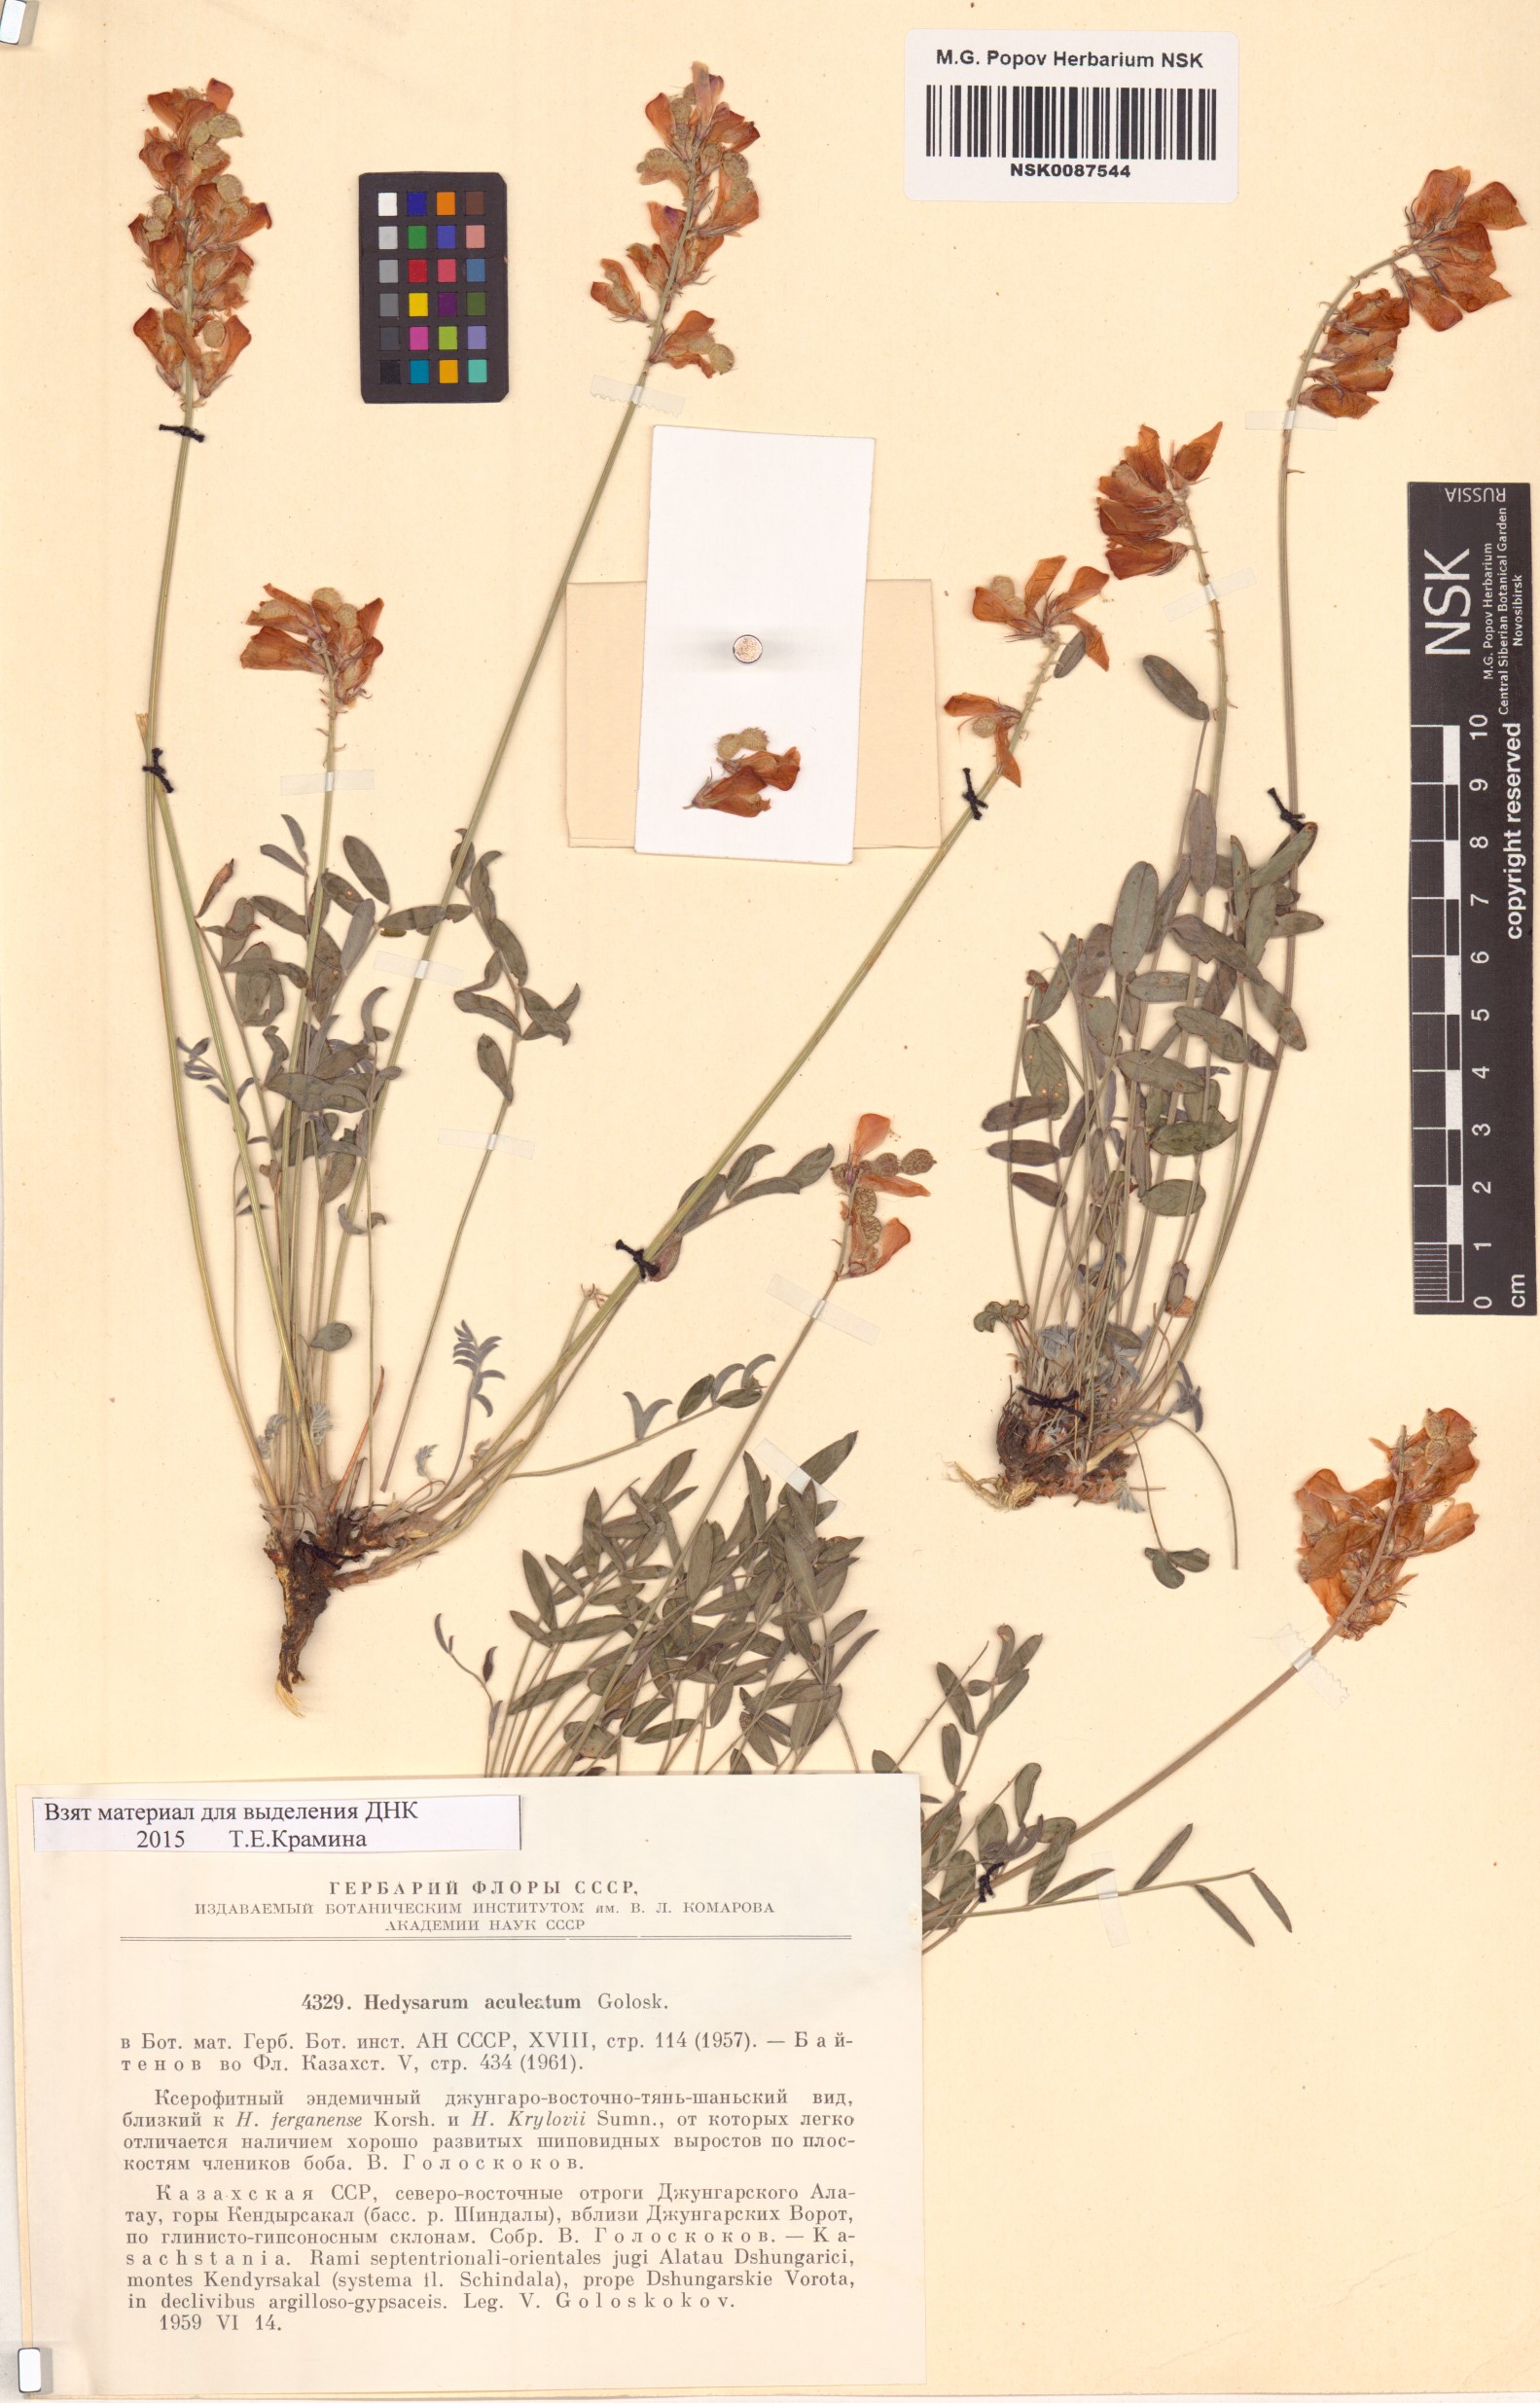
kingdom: Plantae
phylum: Tracheophyta
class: Magnoliopsida
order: Fabales
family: Fabaceae
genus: Hedysarum
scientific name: Hedysarum aculeatum
